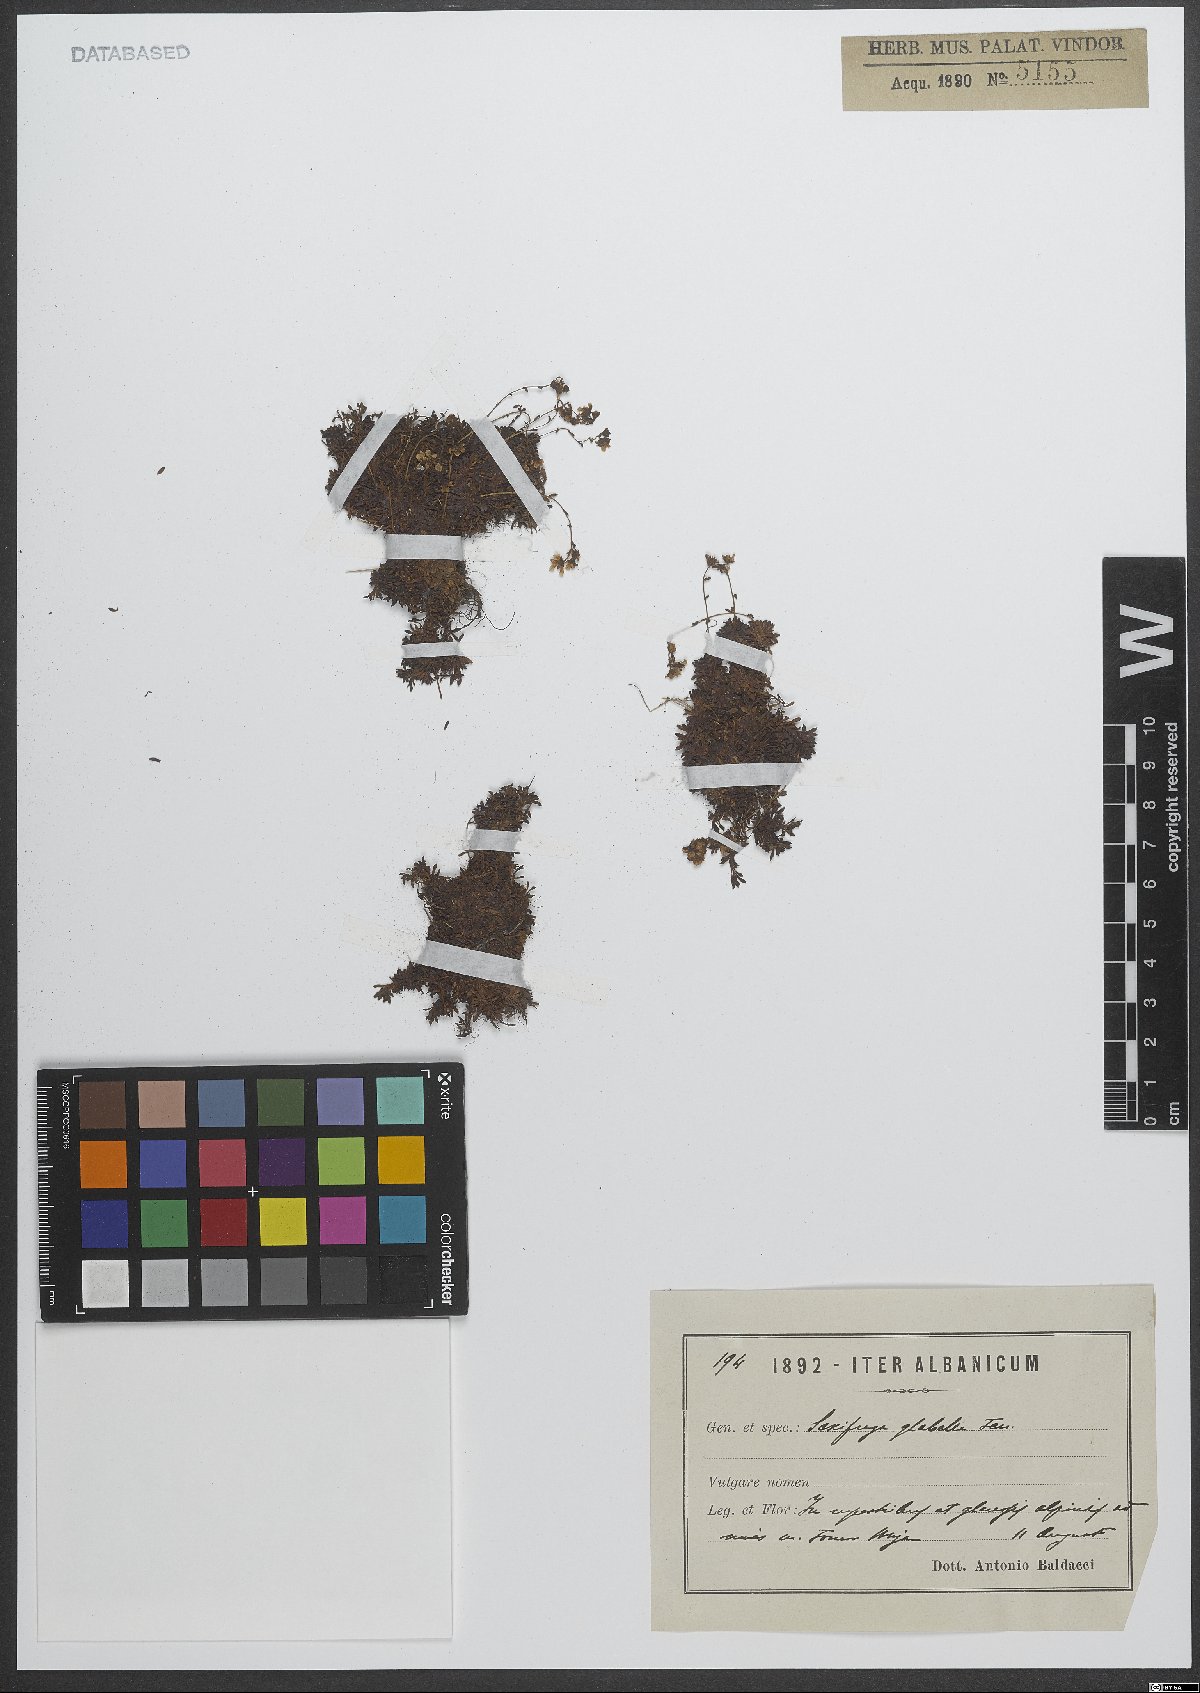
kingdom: Plantae
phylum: Tracheophyta
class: Magnoliopsida
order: Saxifragales
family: Saxifragaceae
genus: Saxifraga
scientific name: Saxifraga glabella
